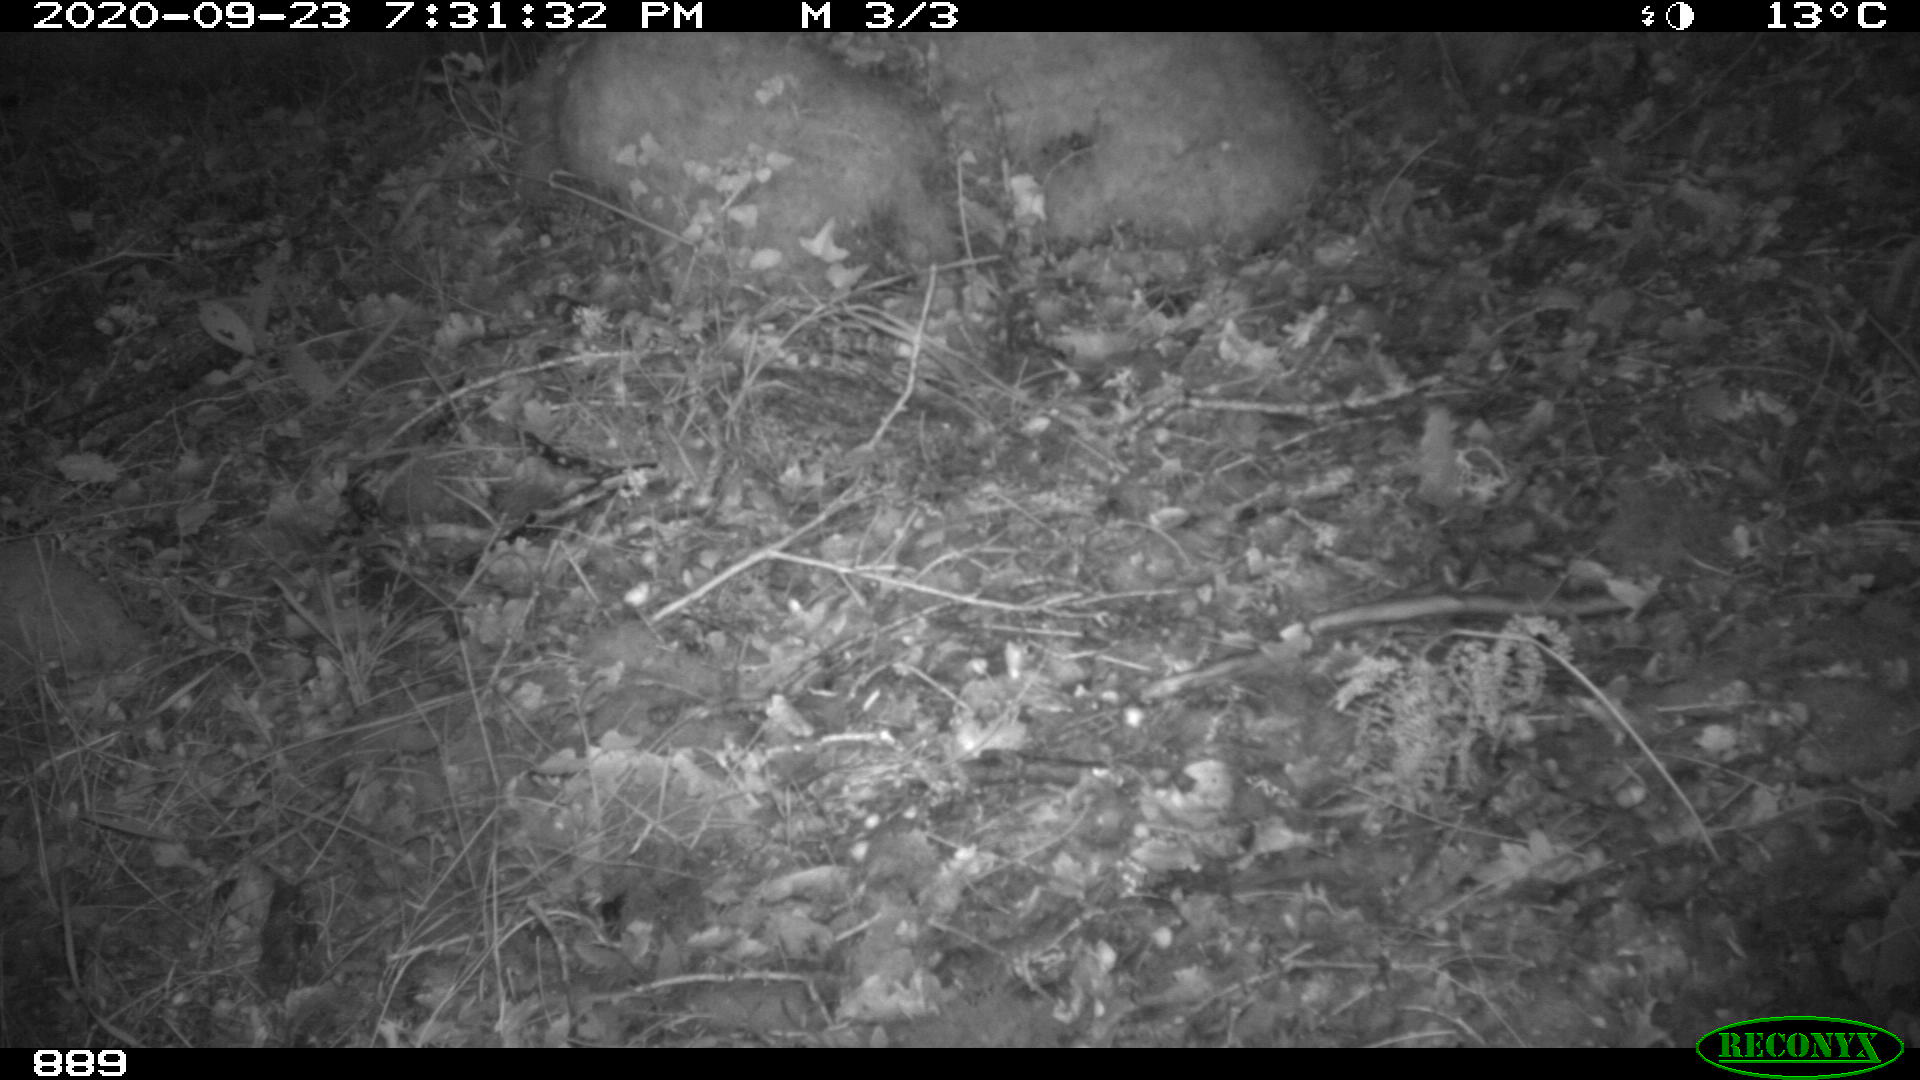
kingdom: Animalia
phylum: Chordata
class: Mammalia
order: Artiodactyla
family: Cervidae
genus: Capreolus
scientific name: Capreolus capreolus
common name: Western roe deer
